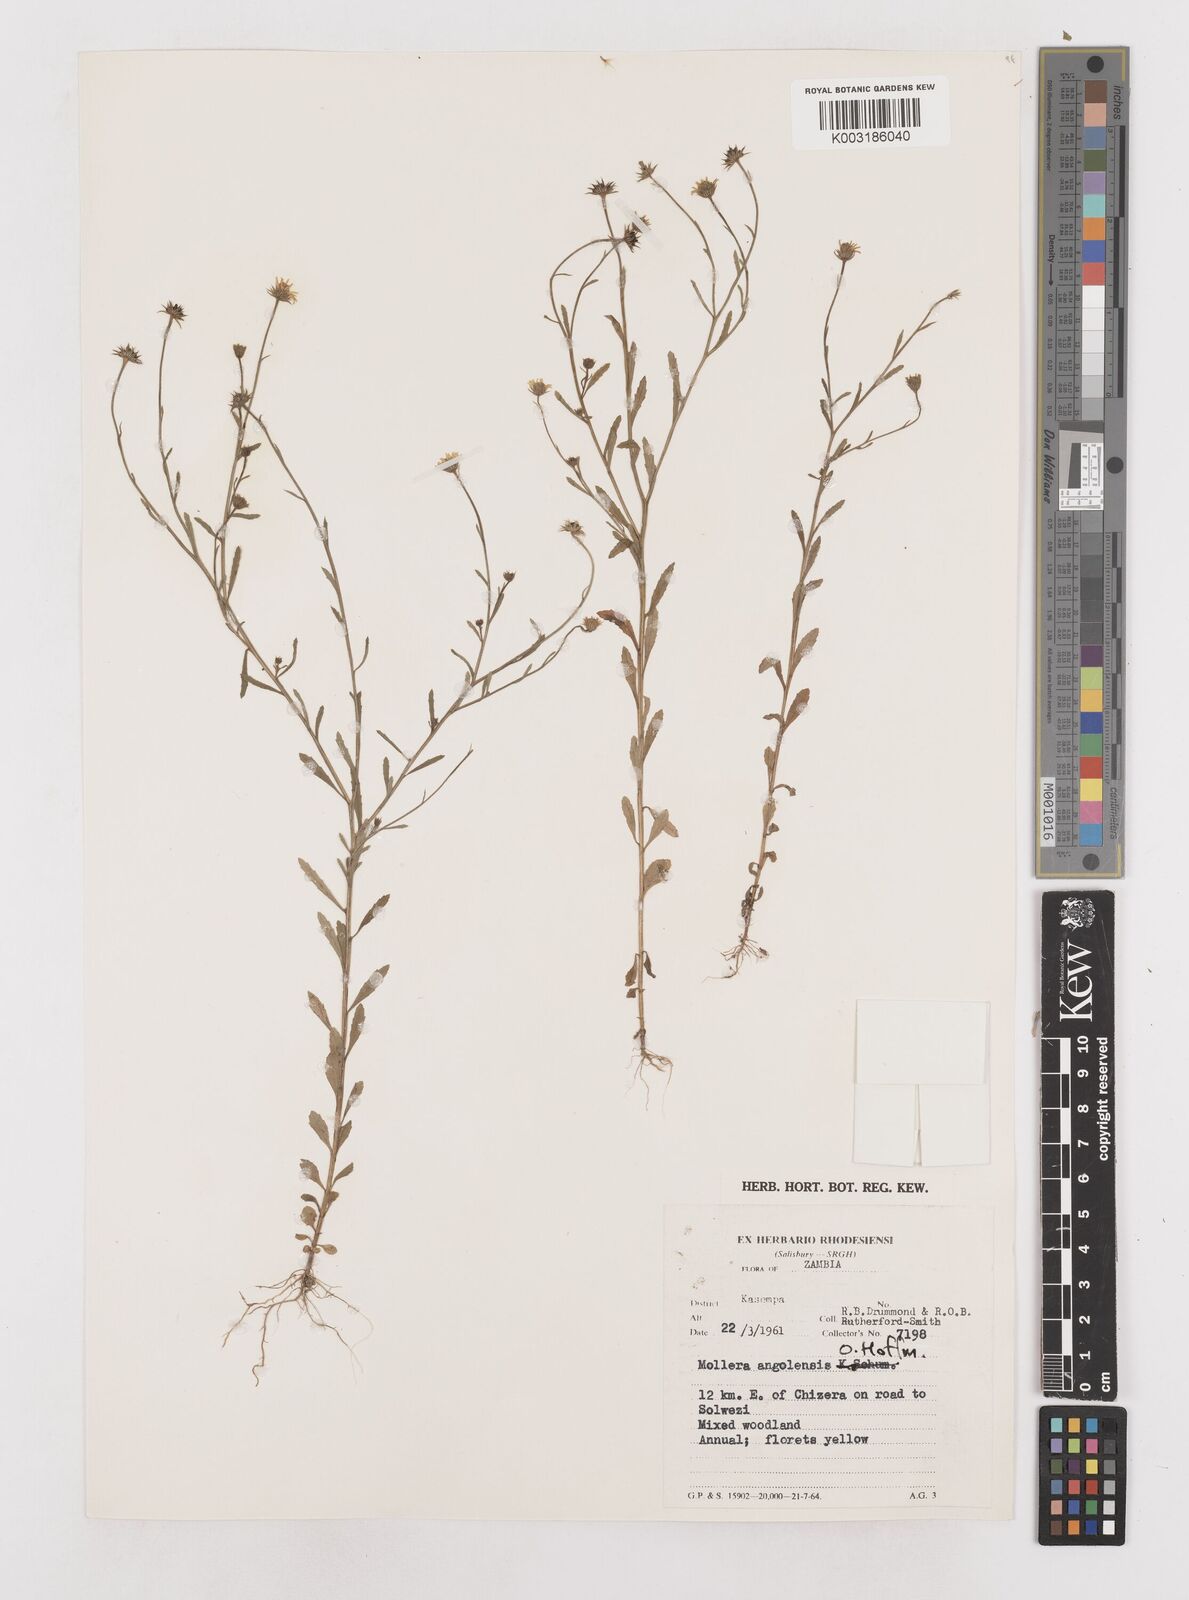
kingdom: Plantae
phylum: Tracheophyta
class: Magnoliopsida
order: Asterales
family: Asteraceae
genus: Calostephane
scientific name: Calostephane angolensis
